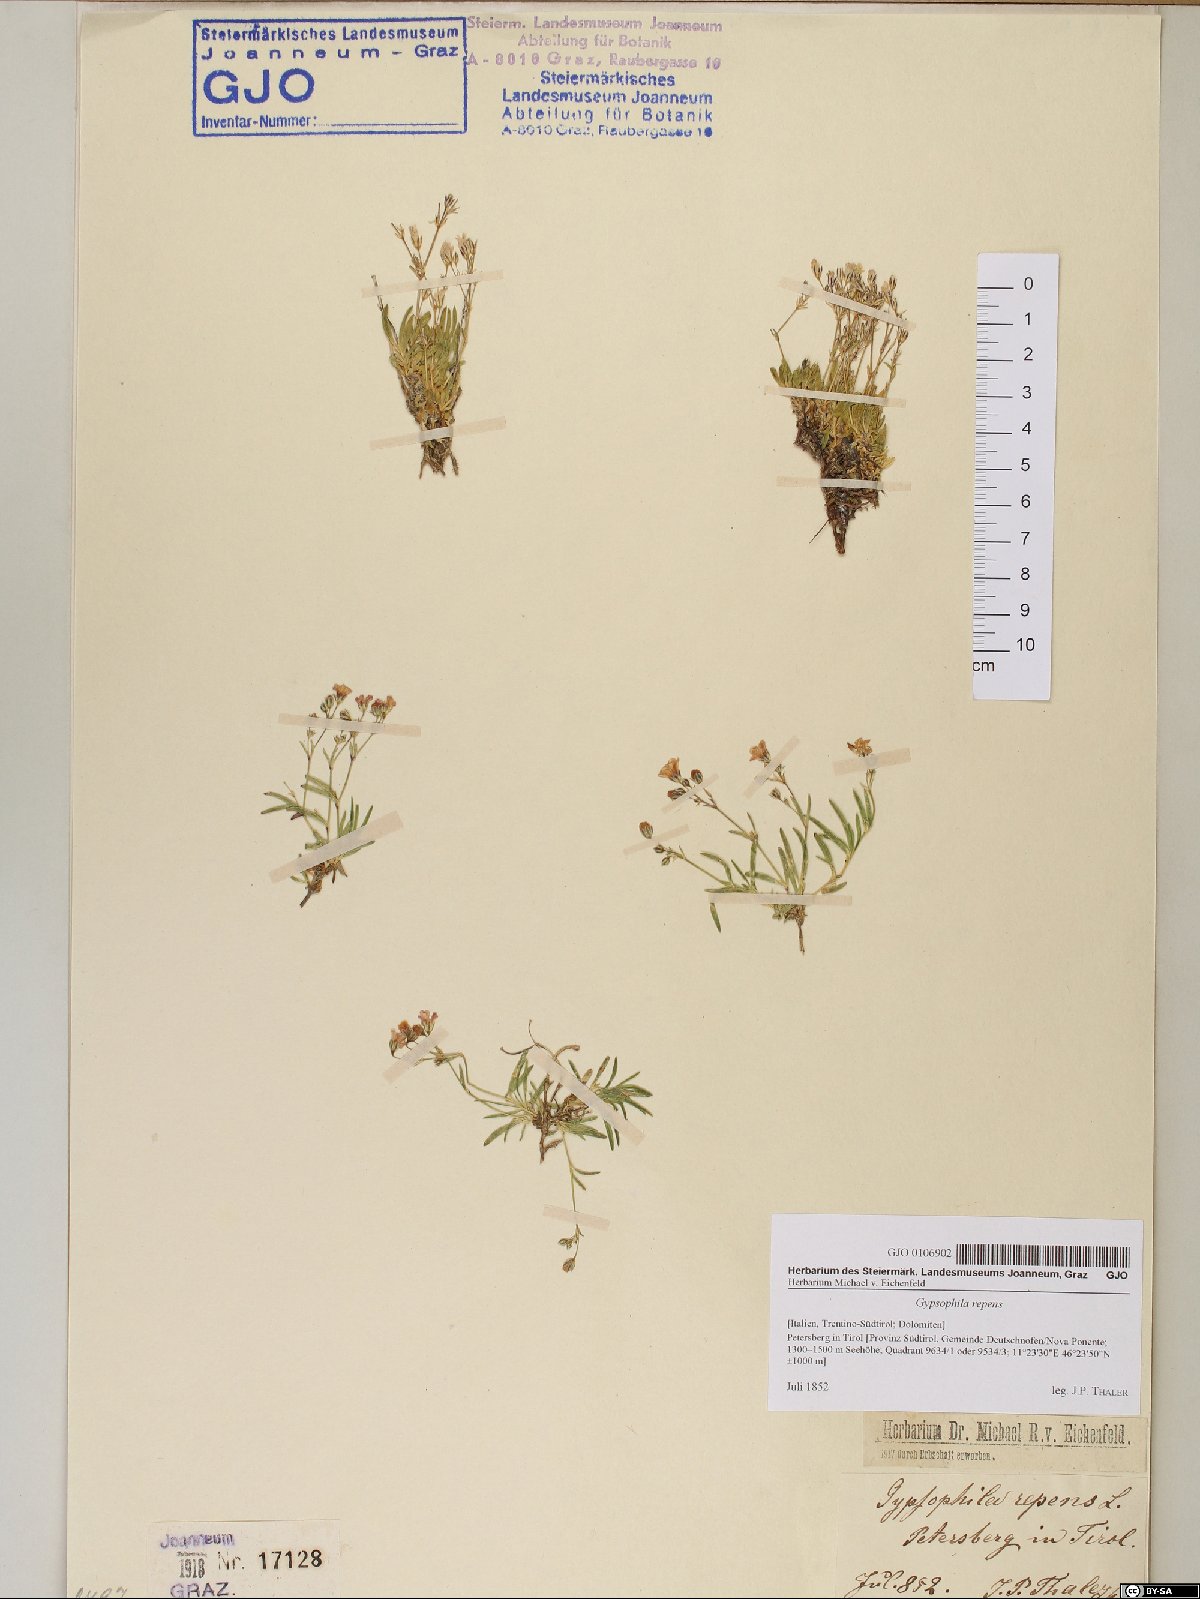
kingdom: Plantae
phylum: Tracheophyta
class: Magnoliopsida
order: Caryophyllales
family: Caryophyllaceae
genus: Gypsophila
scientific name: Gypsophila repens
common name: Creeping baby's-breath
